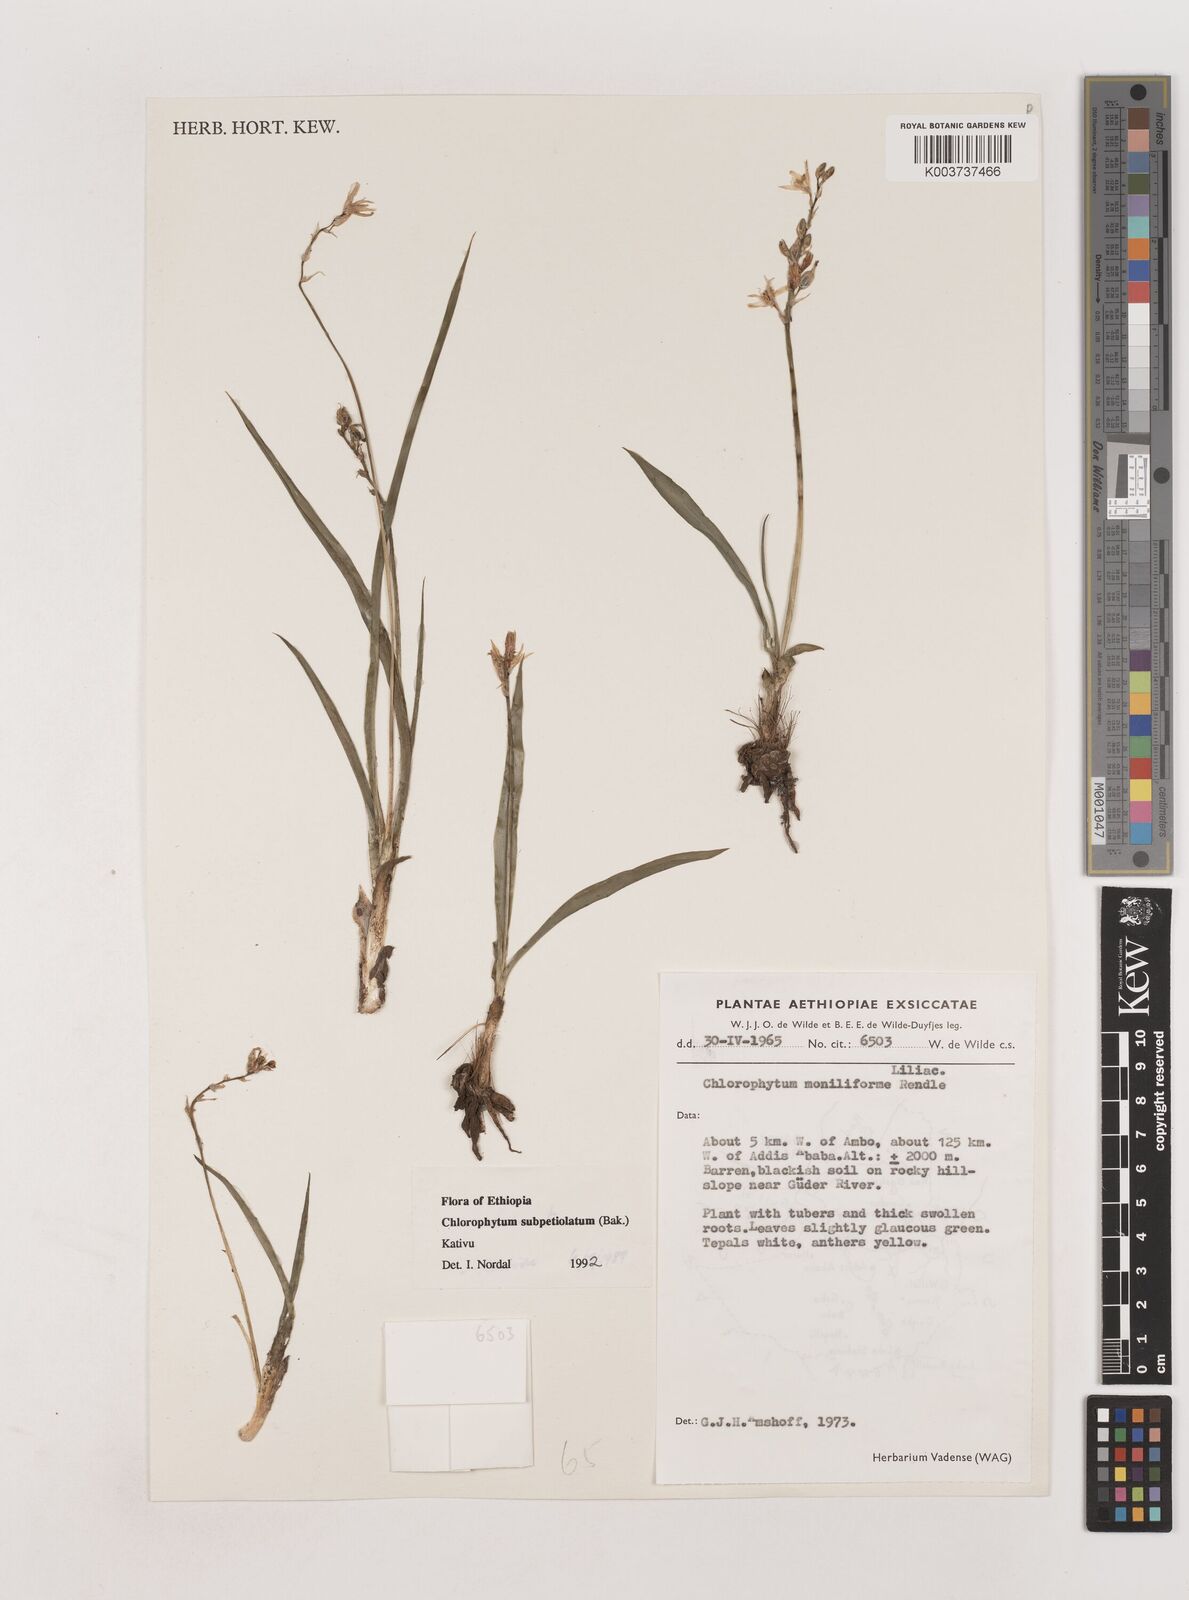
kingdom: Plantae
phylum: Tracheophyta
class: Liliopsida
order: Asparagales
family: Asparagaceae
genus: Chlorophytum
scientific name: Chlorophytum subpetiolatum
